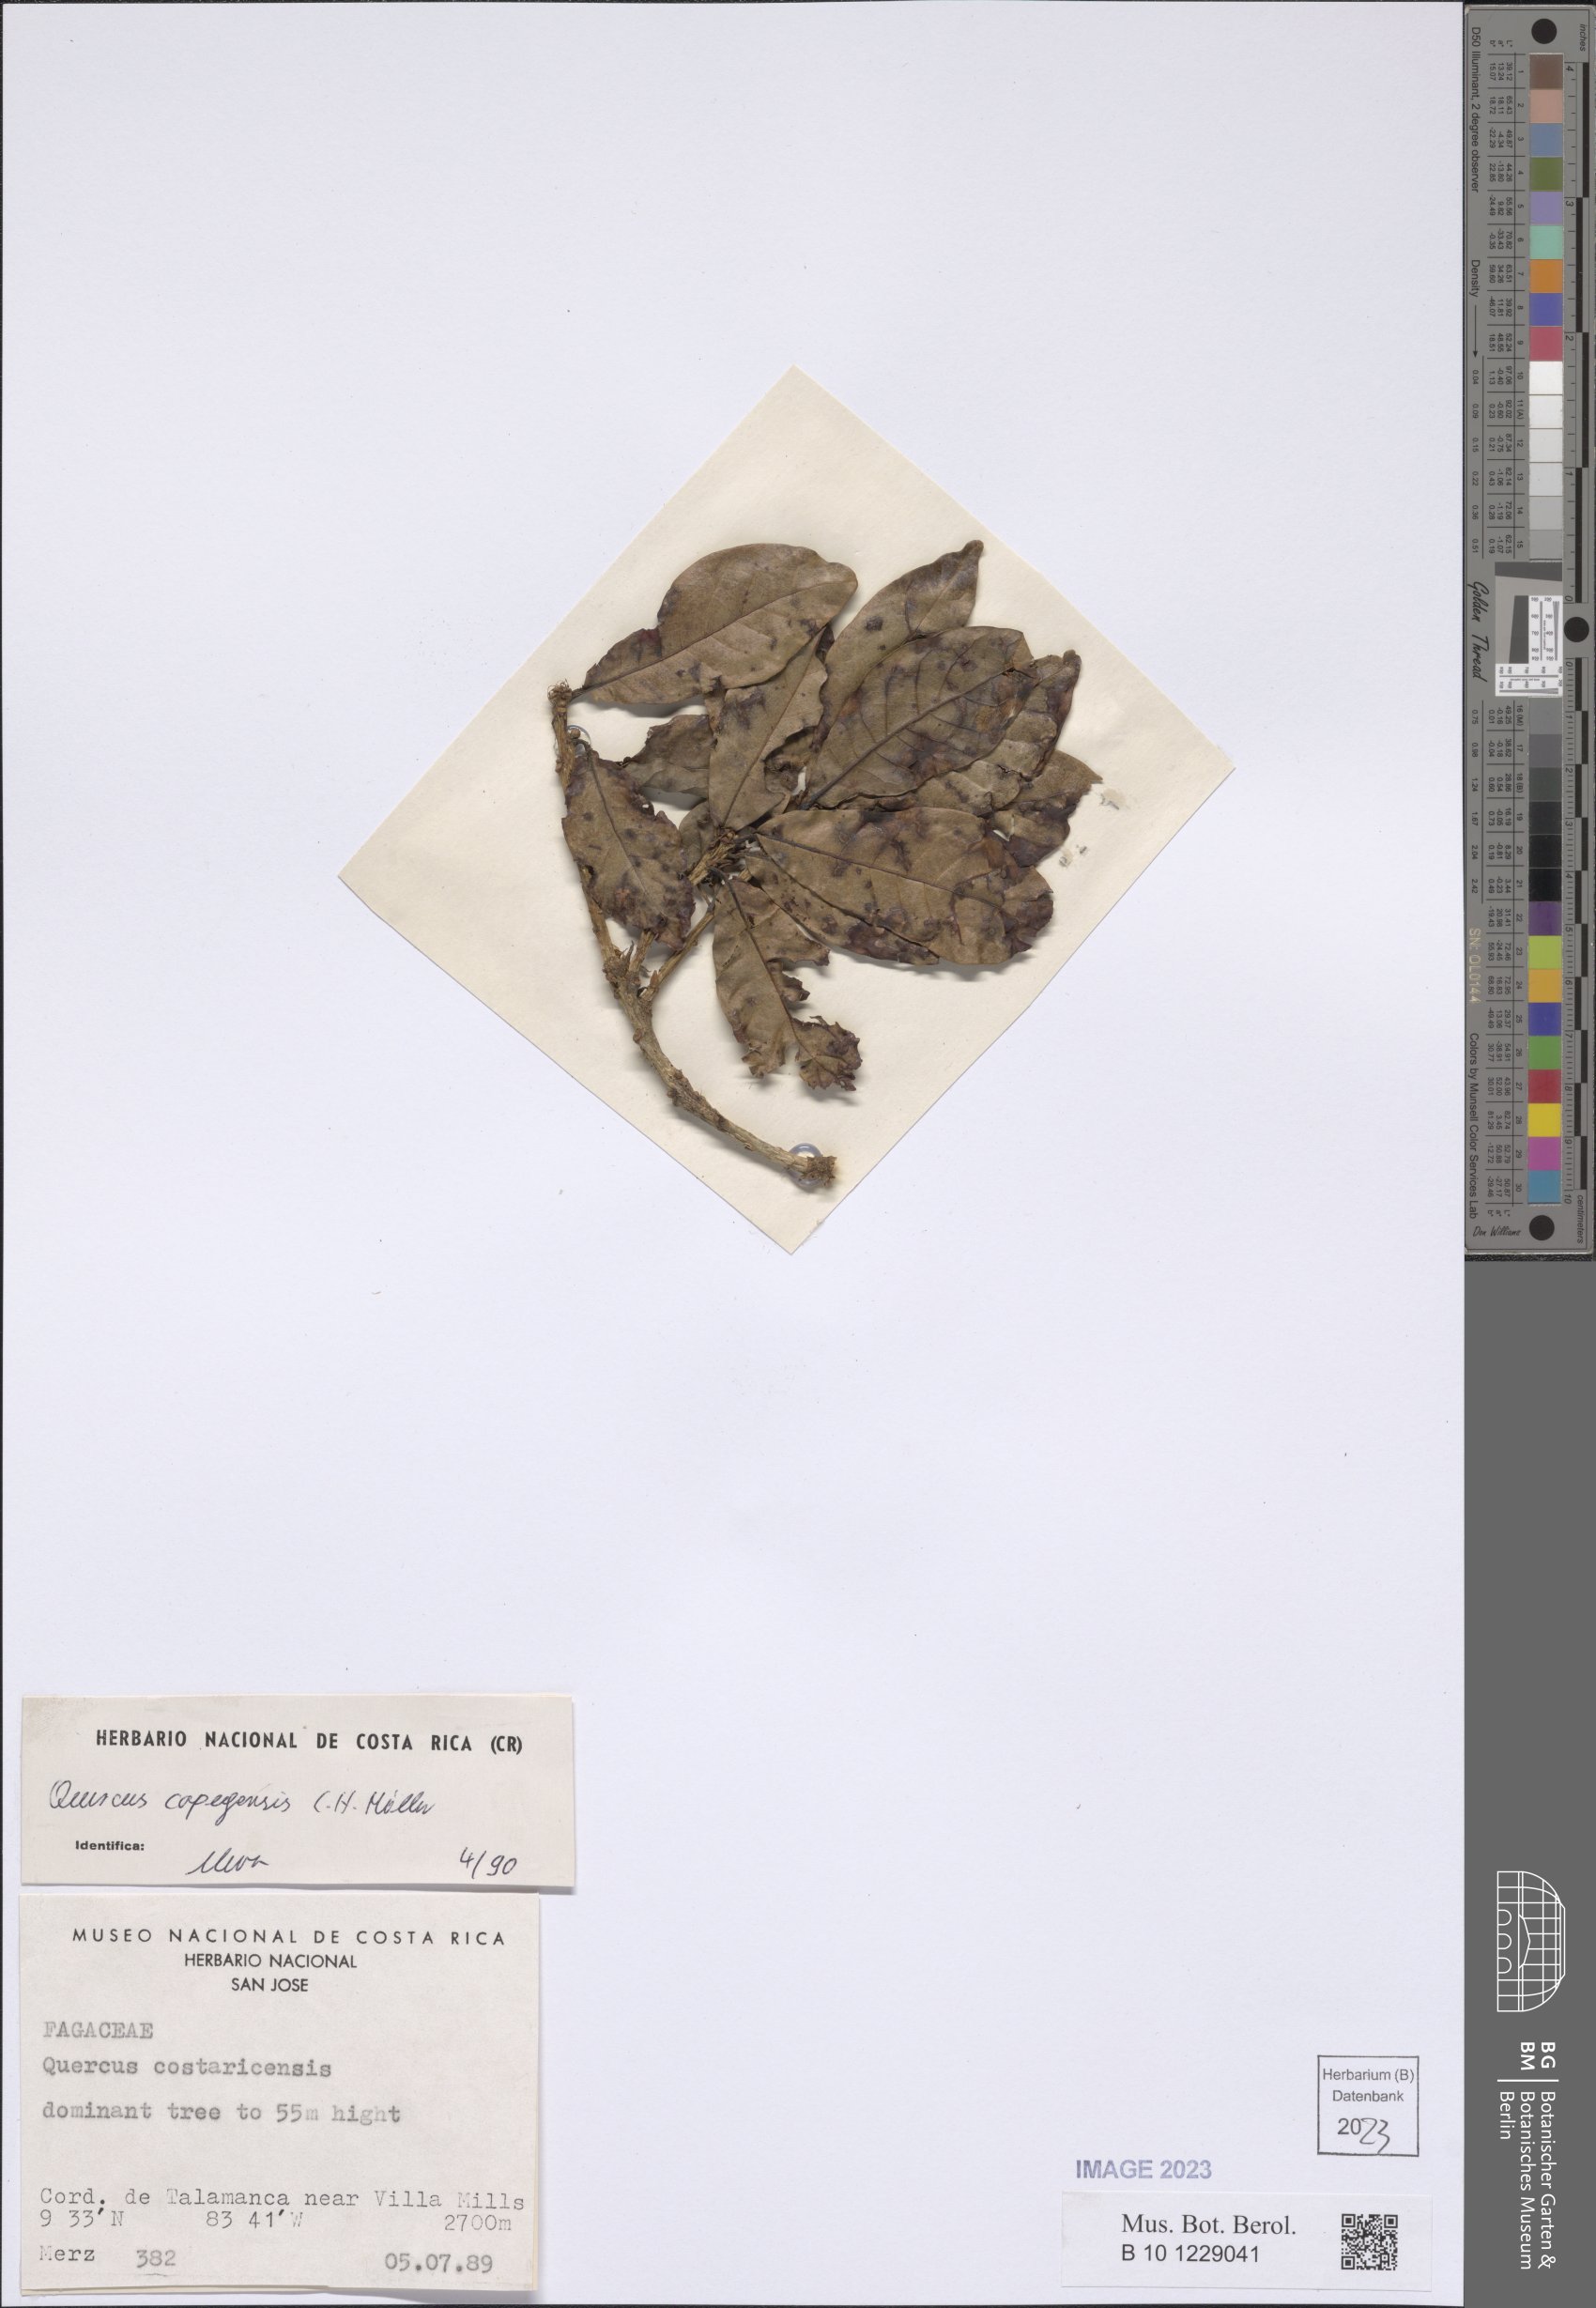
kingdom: Plantae
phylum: Tracheophyta
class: Magnoliopsida
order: Fagales
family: Fagaceae
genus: Quercus
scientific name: Quercus copeyensis
